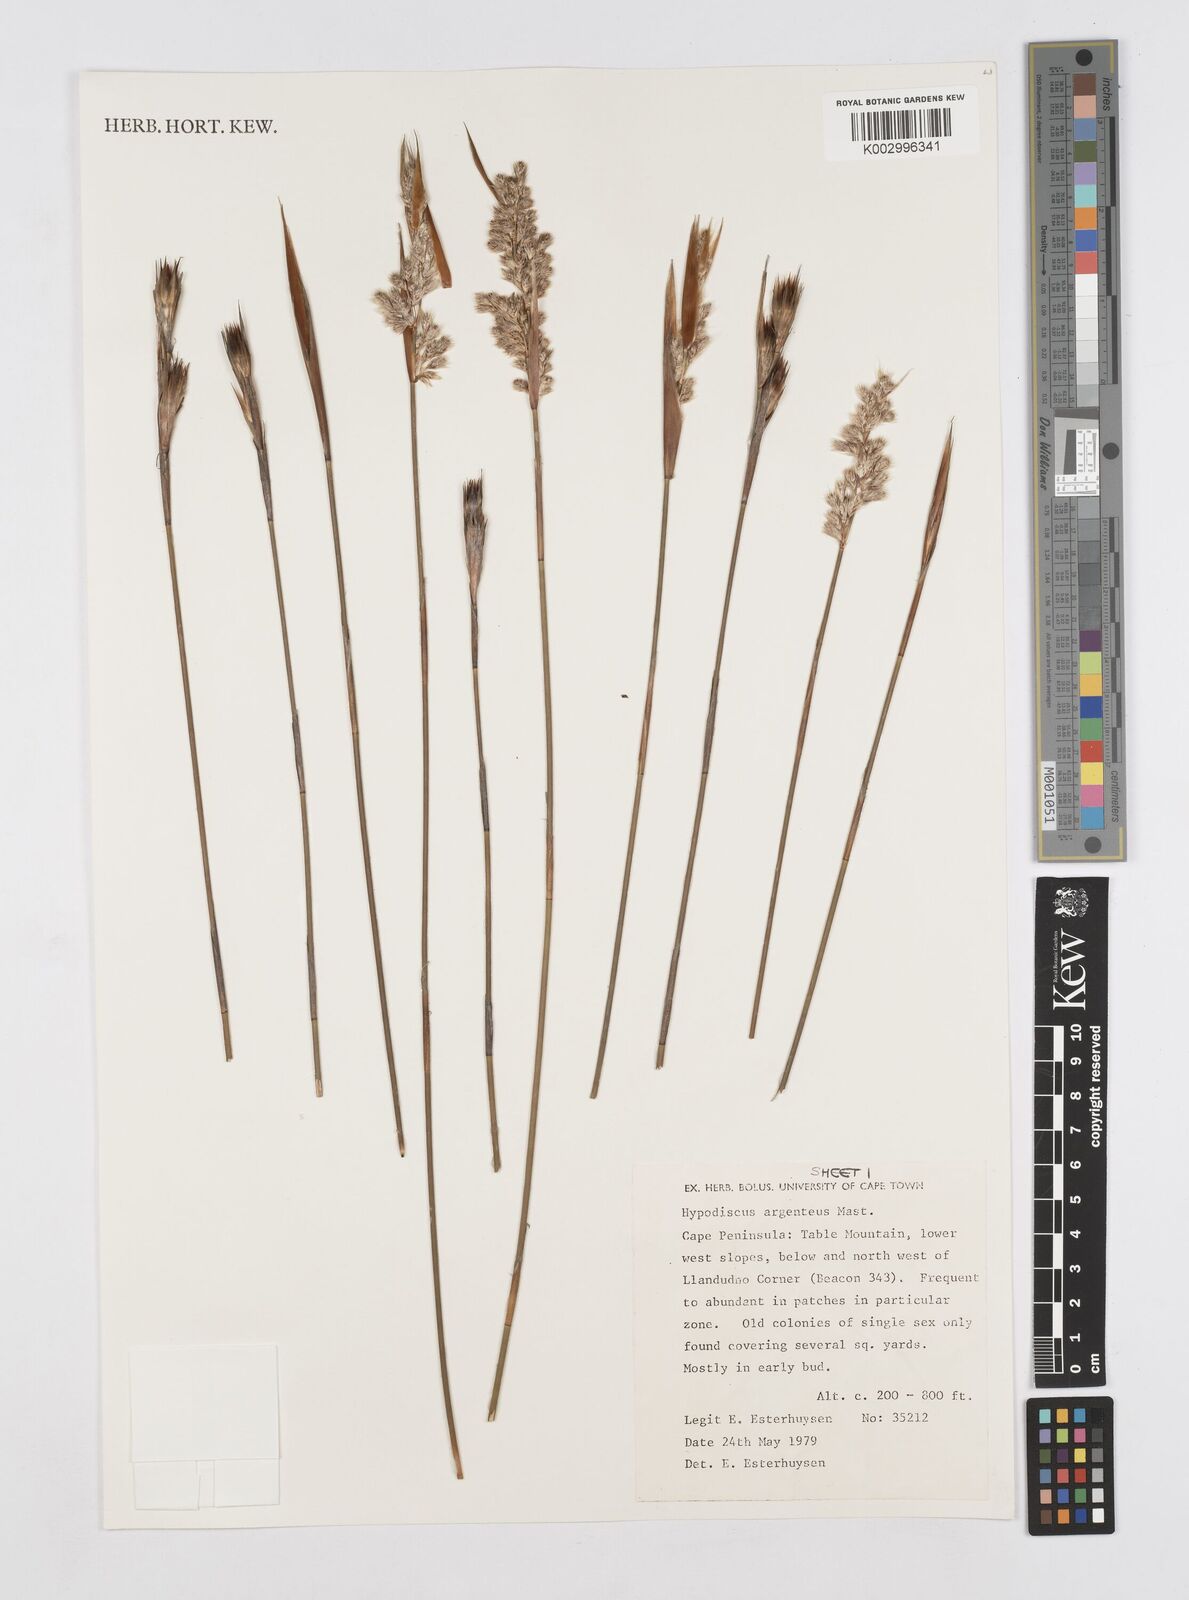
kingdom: Plantae
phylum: Tracheophyta
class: Liliopsida
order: Poales
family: Restionaceae
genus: Hypodiscus
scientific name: Hypodiscus argenteus
